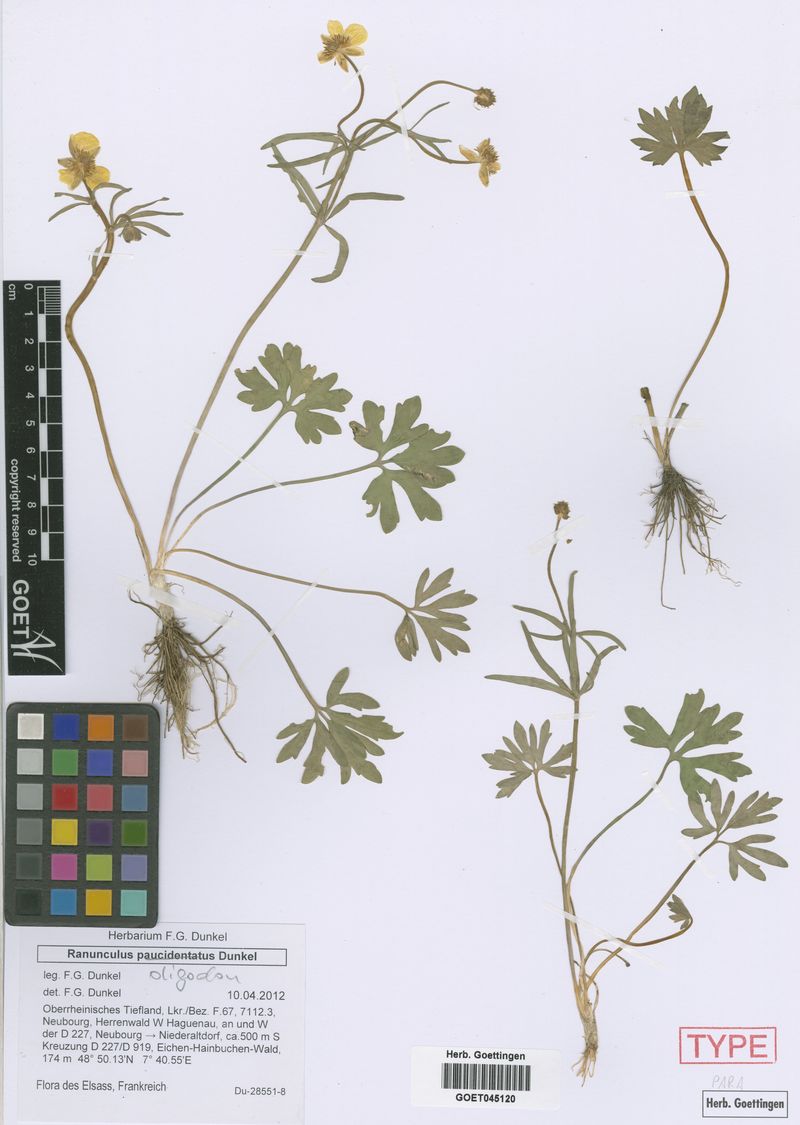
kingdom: Plantae
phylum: Tracheophyta
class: Magnoliopsida
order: Ranunculales
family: Ranunculaceae
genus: Ranunculus
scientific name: Ranunculus oligodon
